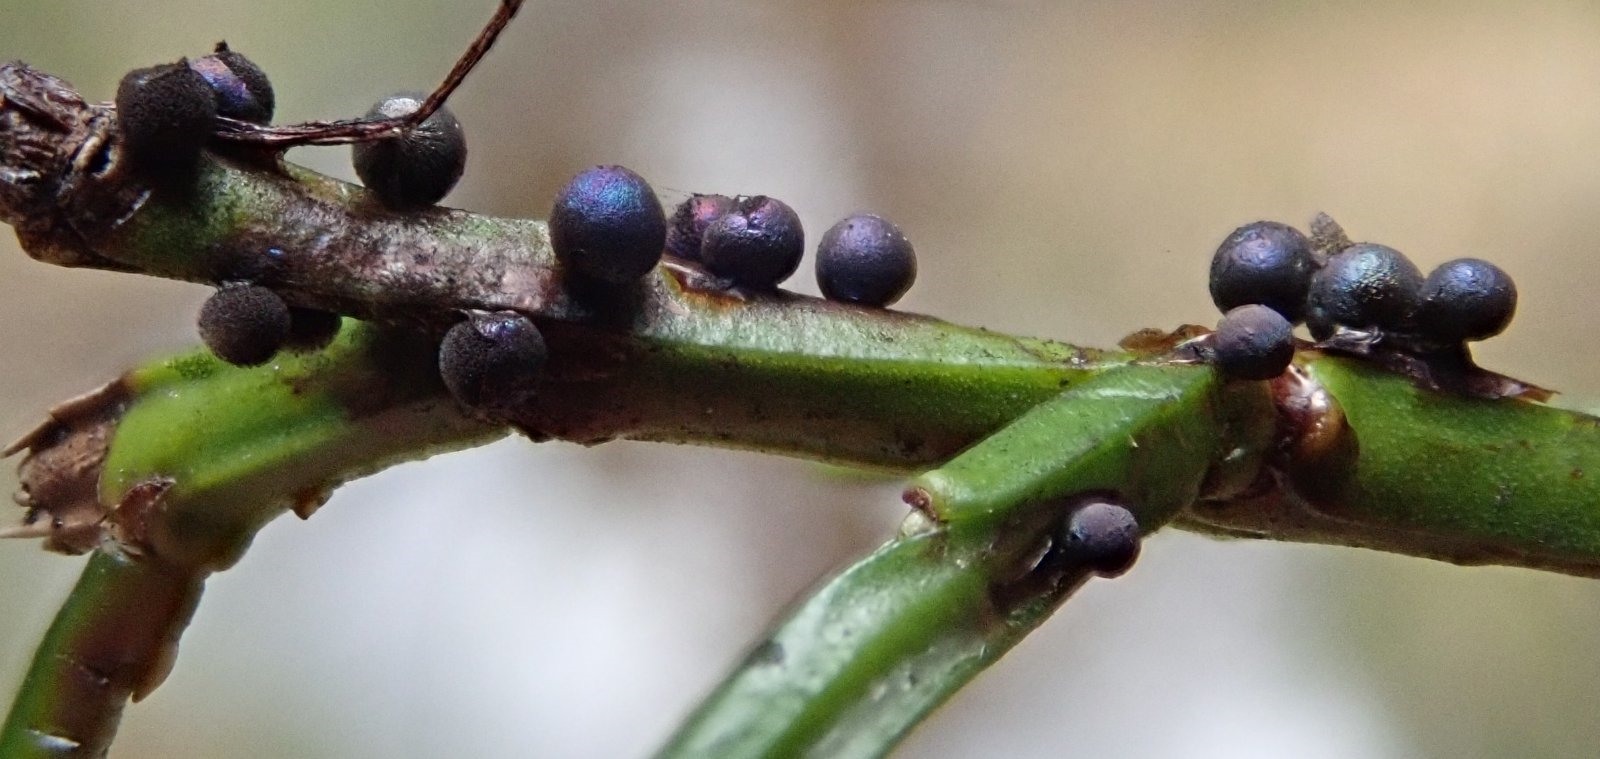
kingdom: Protozoa
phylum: Mycetozoa
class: Myxomycetes
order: Stemonitidales
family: Stemonitidaceae
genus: Lamproderma
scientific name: Lamproderma spinulosporum
